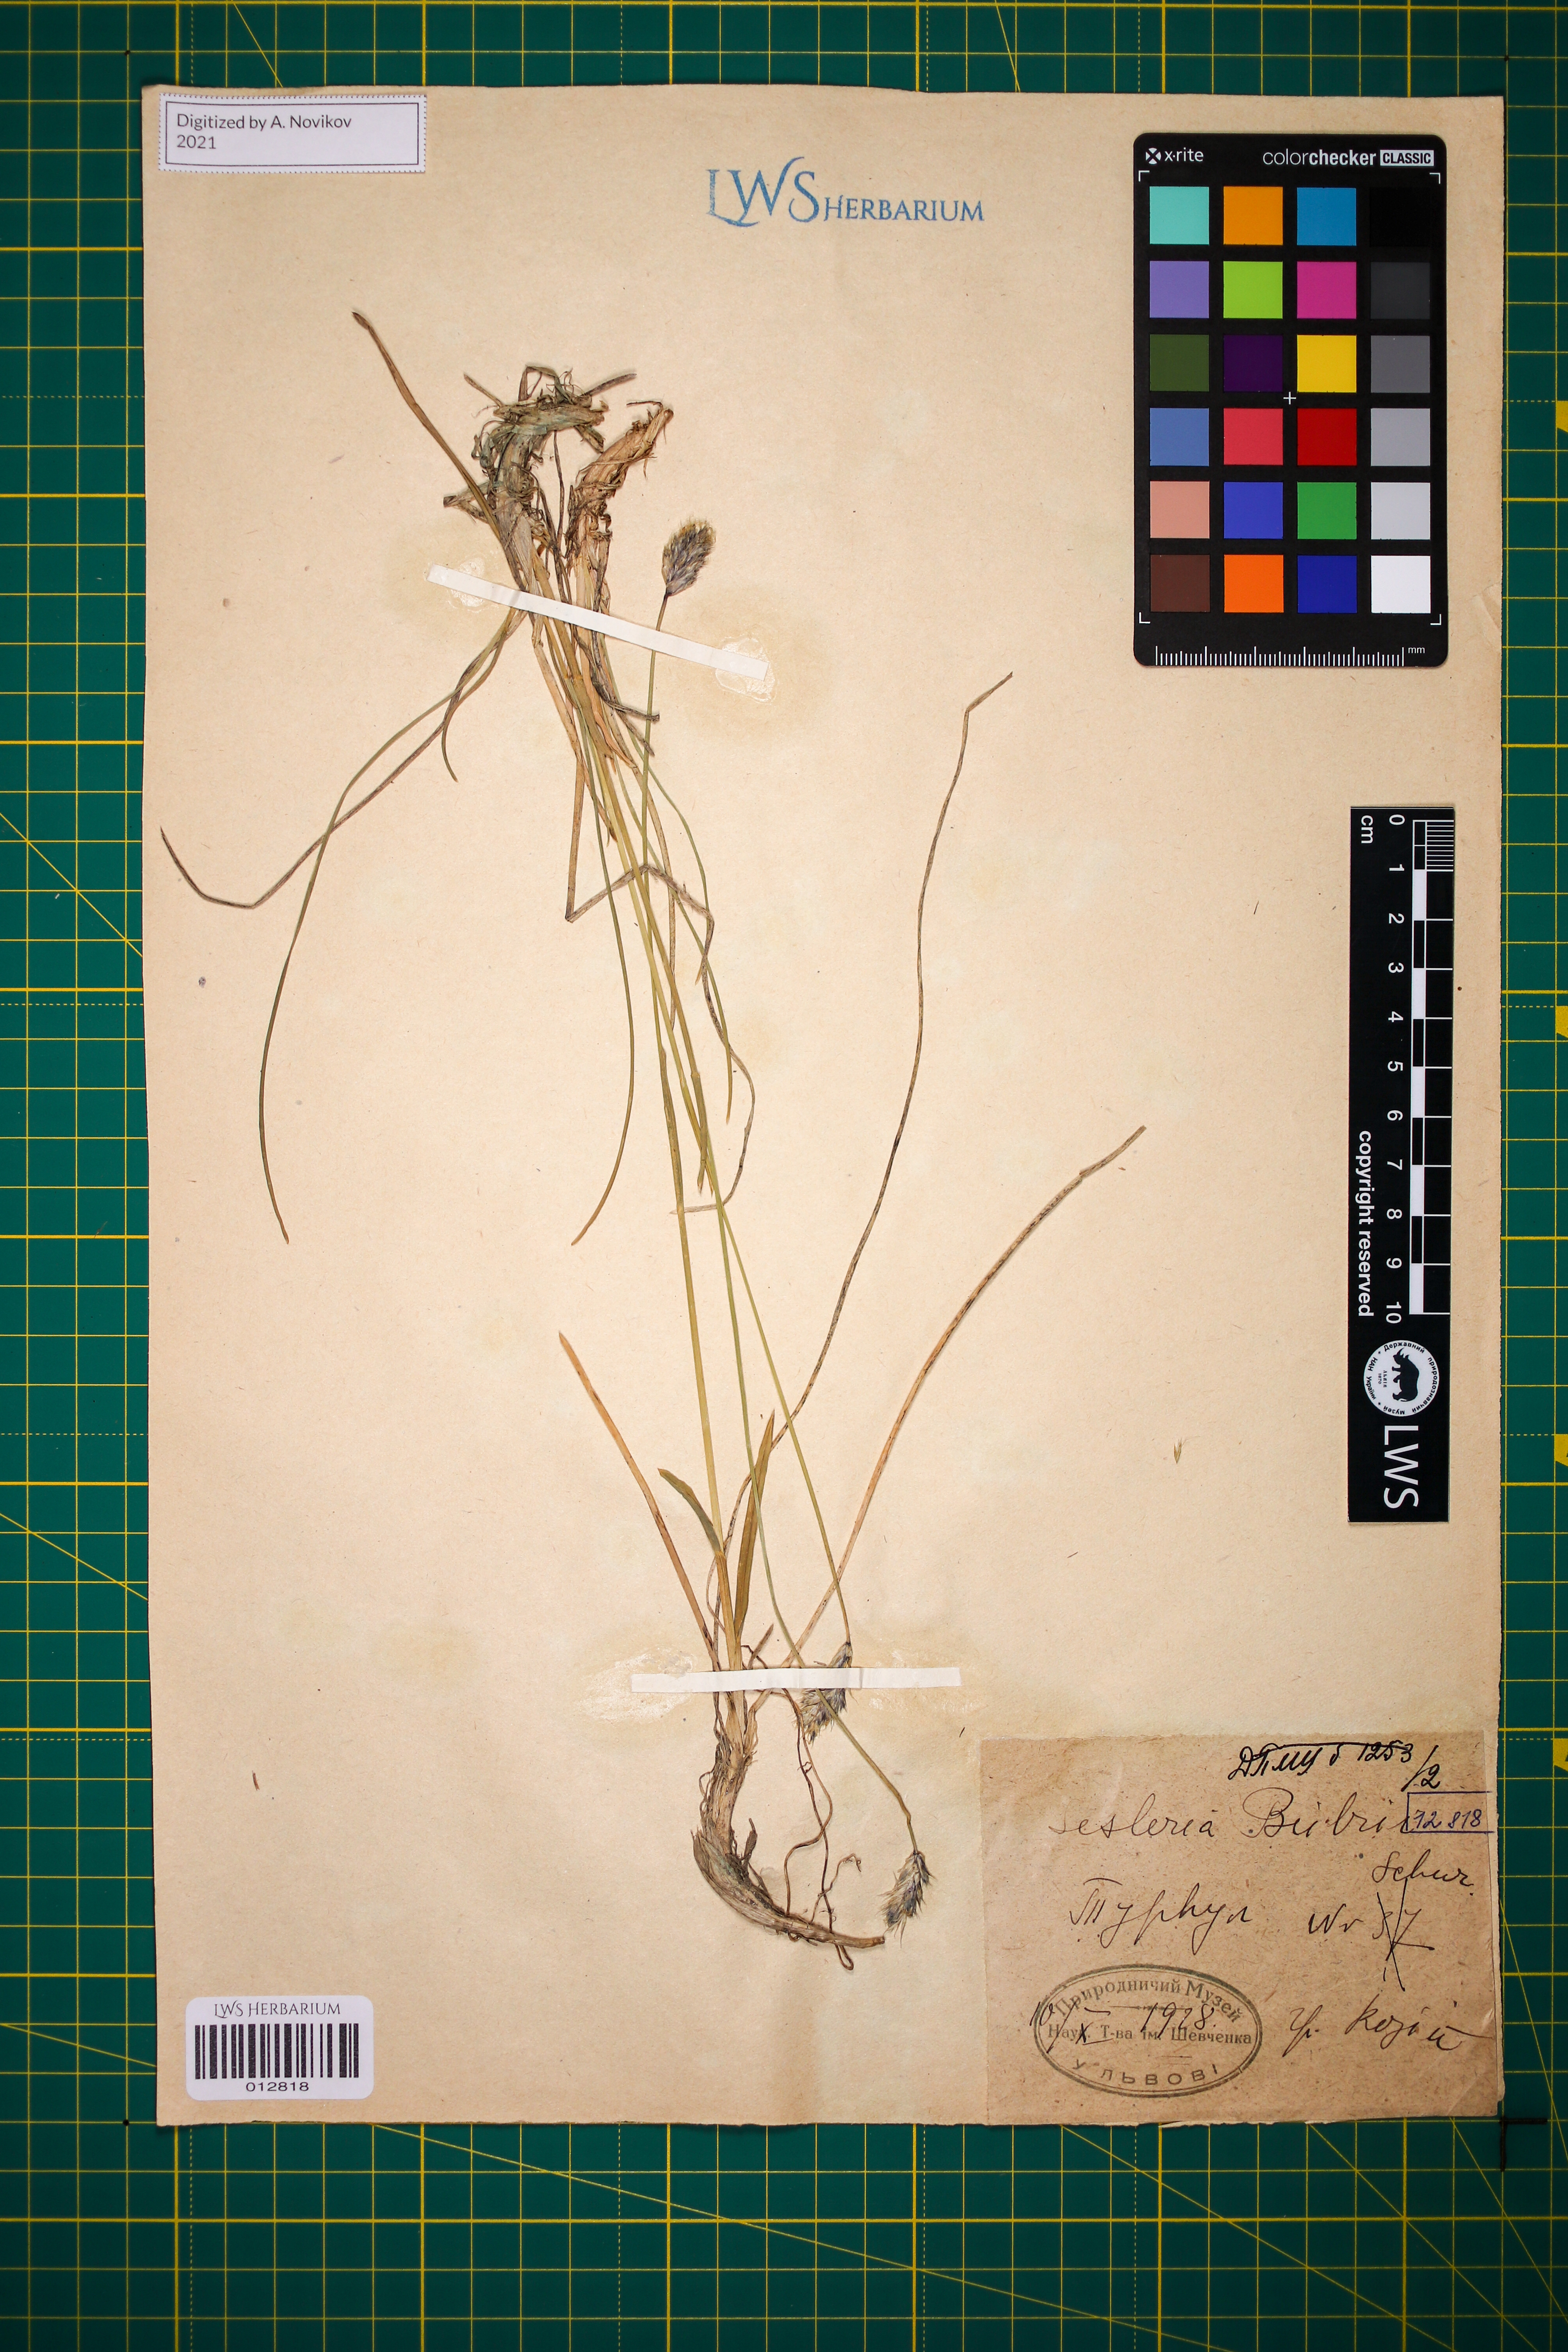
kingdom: Plantae
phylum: Tracheophyta
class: Liliopsida
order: Poales
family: Poaceae
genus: Sesleria
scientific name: Sesleria bielzii
